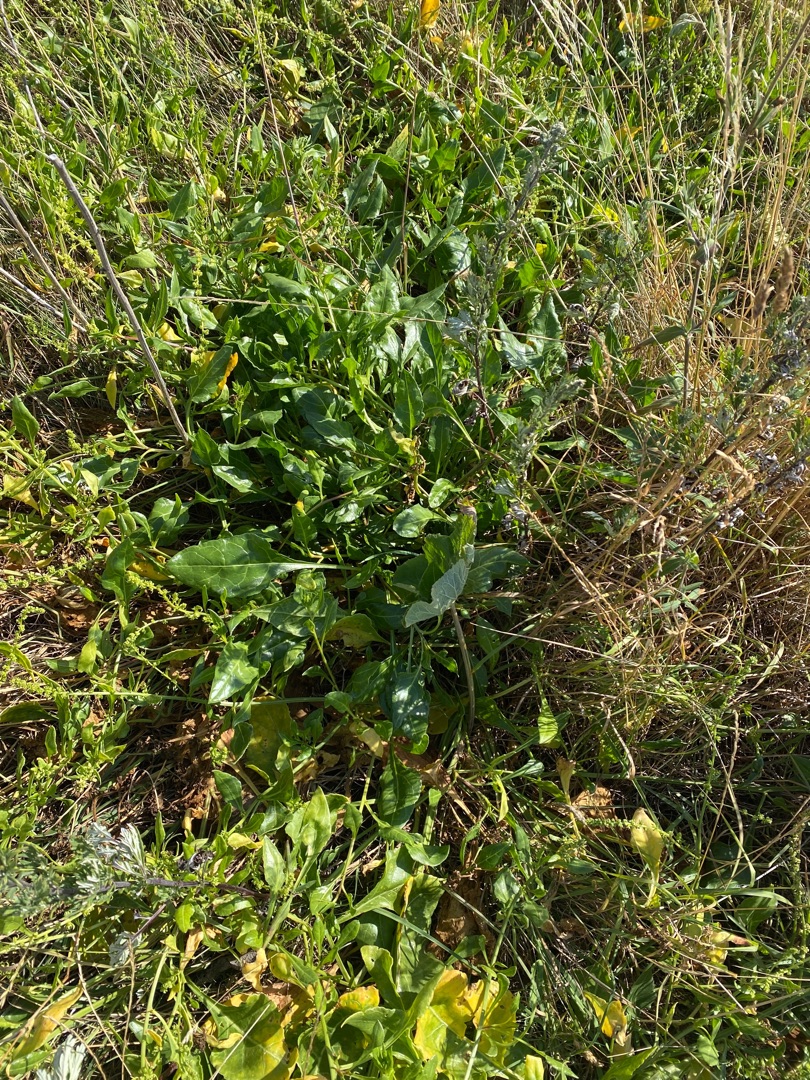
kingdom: Plantae
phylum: Tracheophyta
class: Magnoliopsida
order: Caryophyllales
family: Amaranthaceae
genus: Beta
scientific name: Beta maritima
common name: Strand-bede
